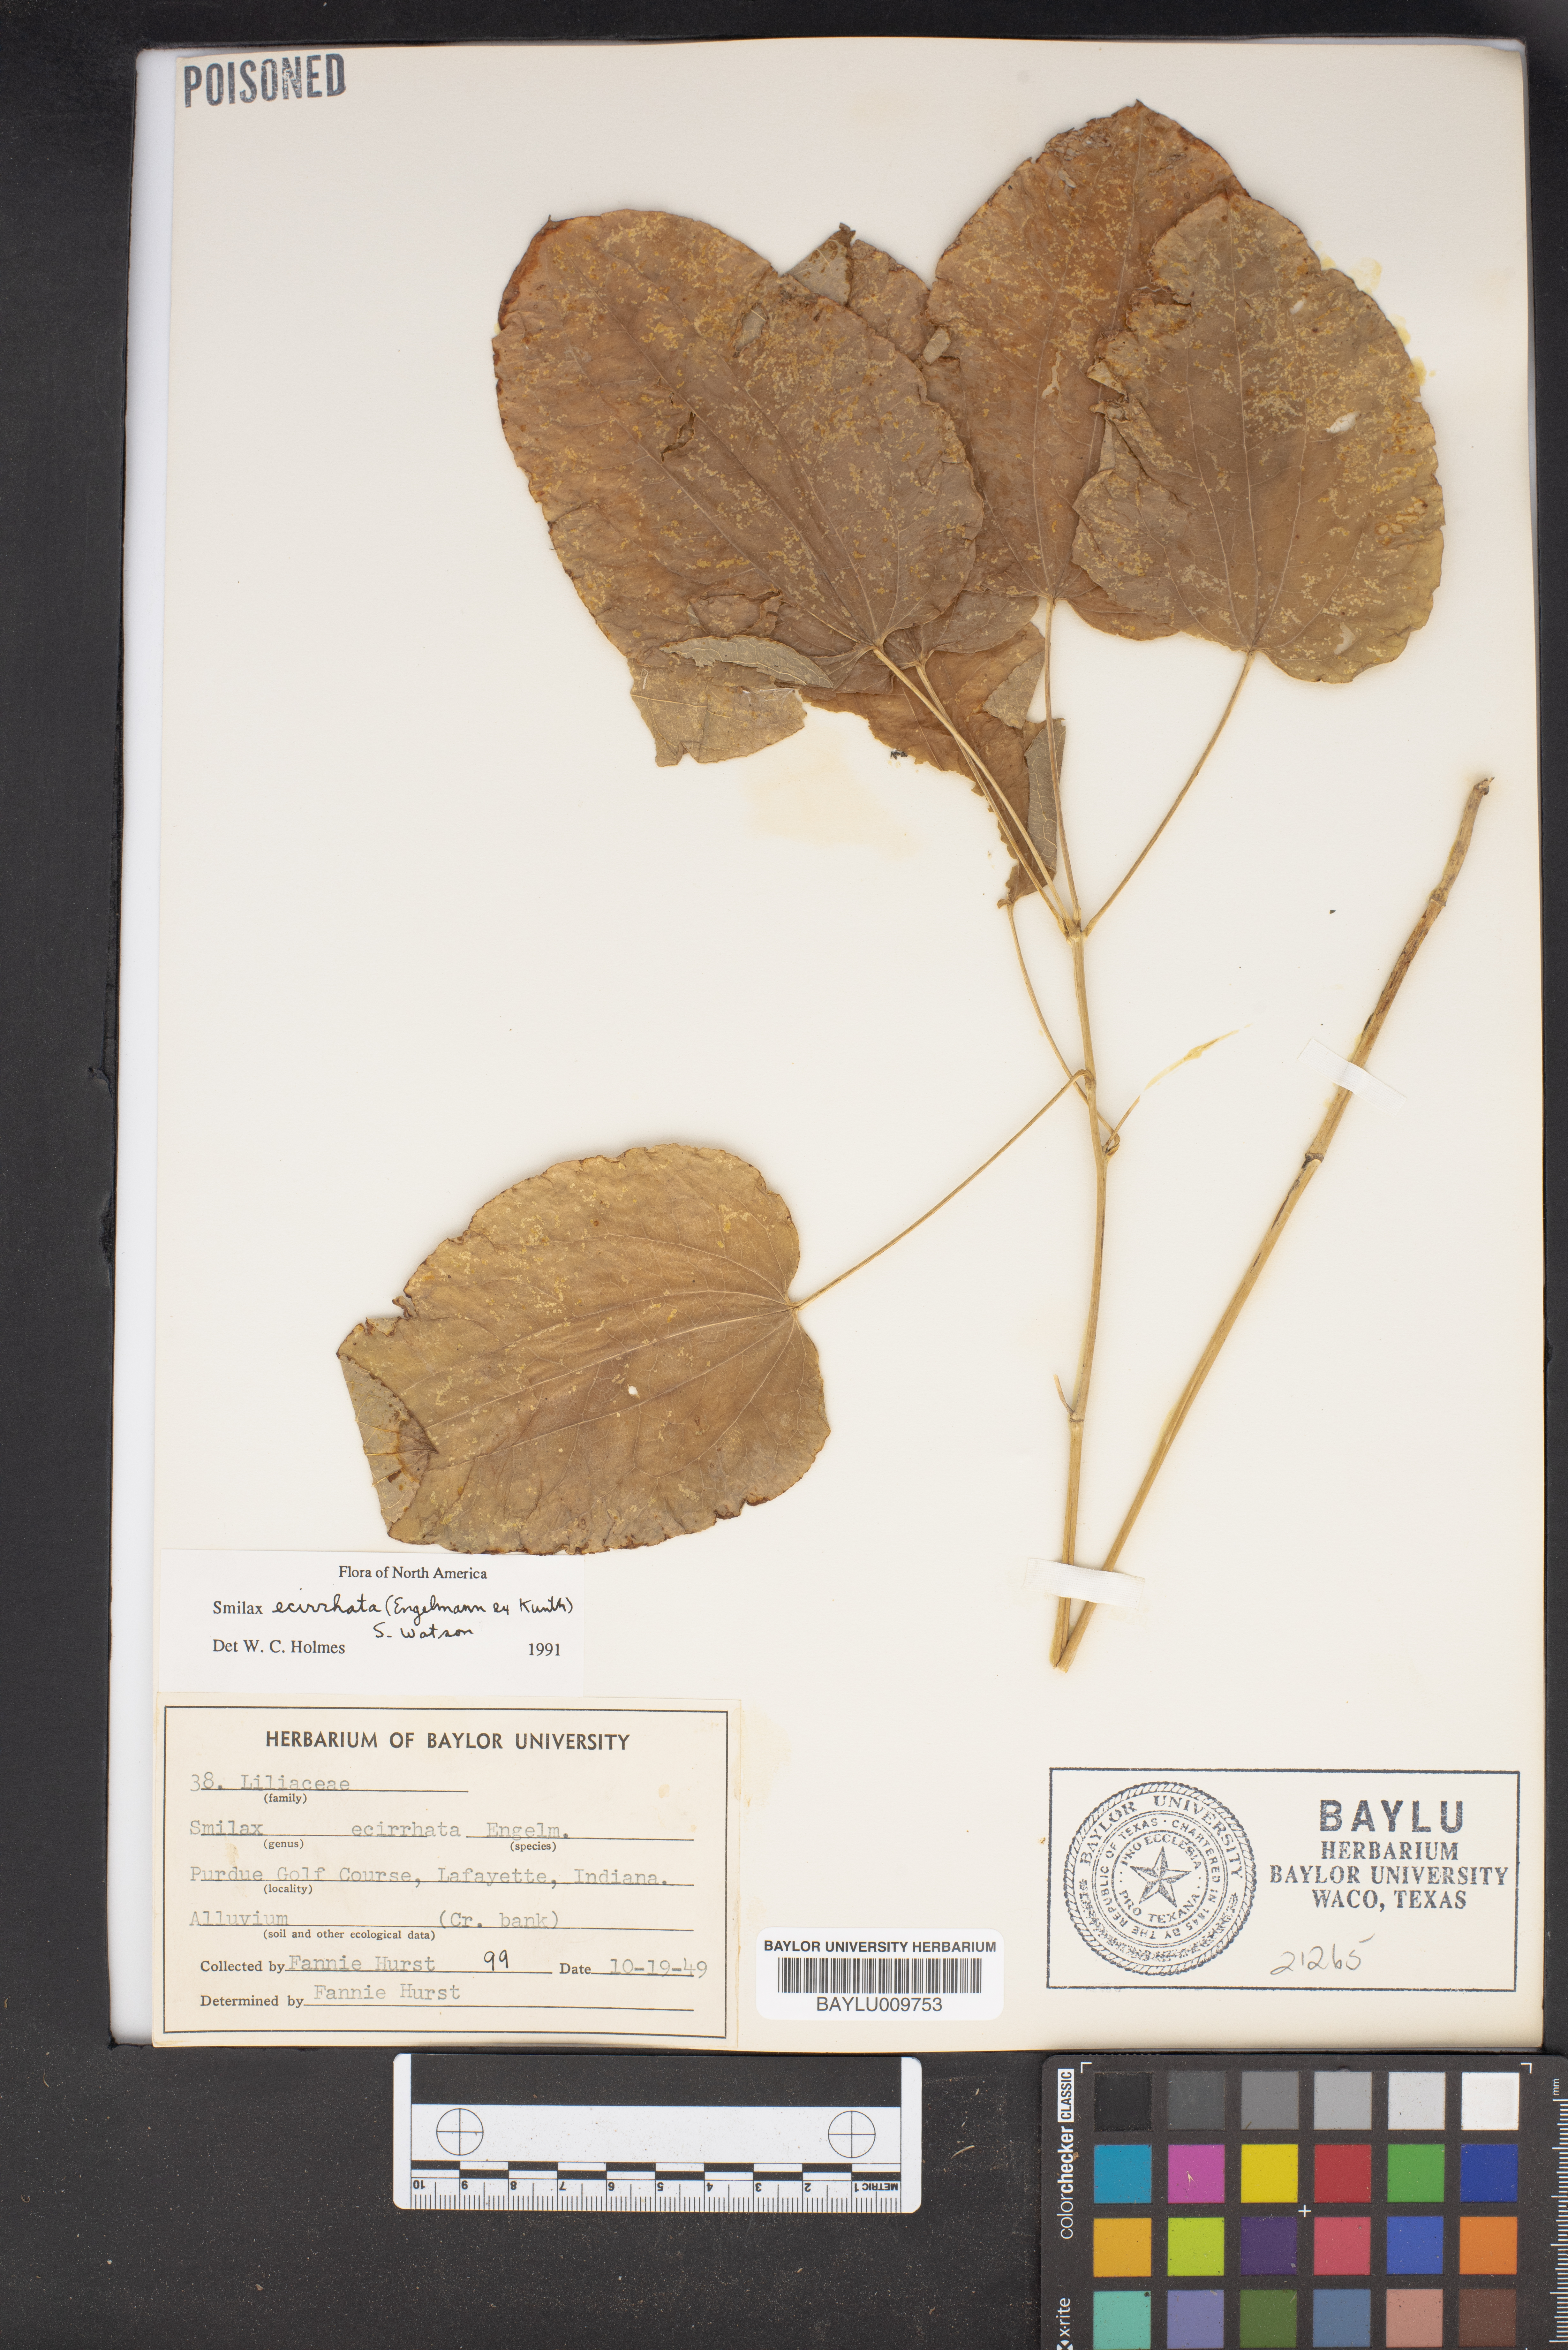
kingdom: Plantae
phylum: Tracheophyta
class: Liliopsida
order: Liliales
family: Smilacaceae
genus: Smilax
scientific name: Smilax ecirrhata
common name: Upright carrionflower
